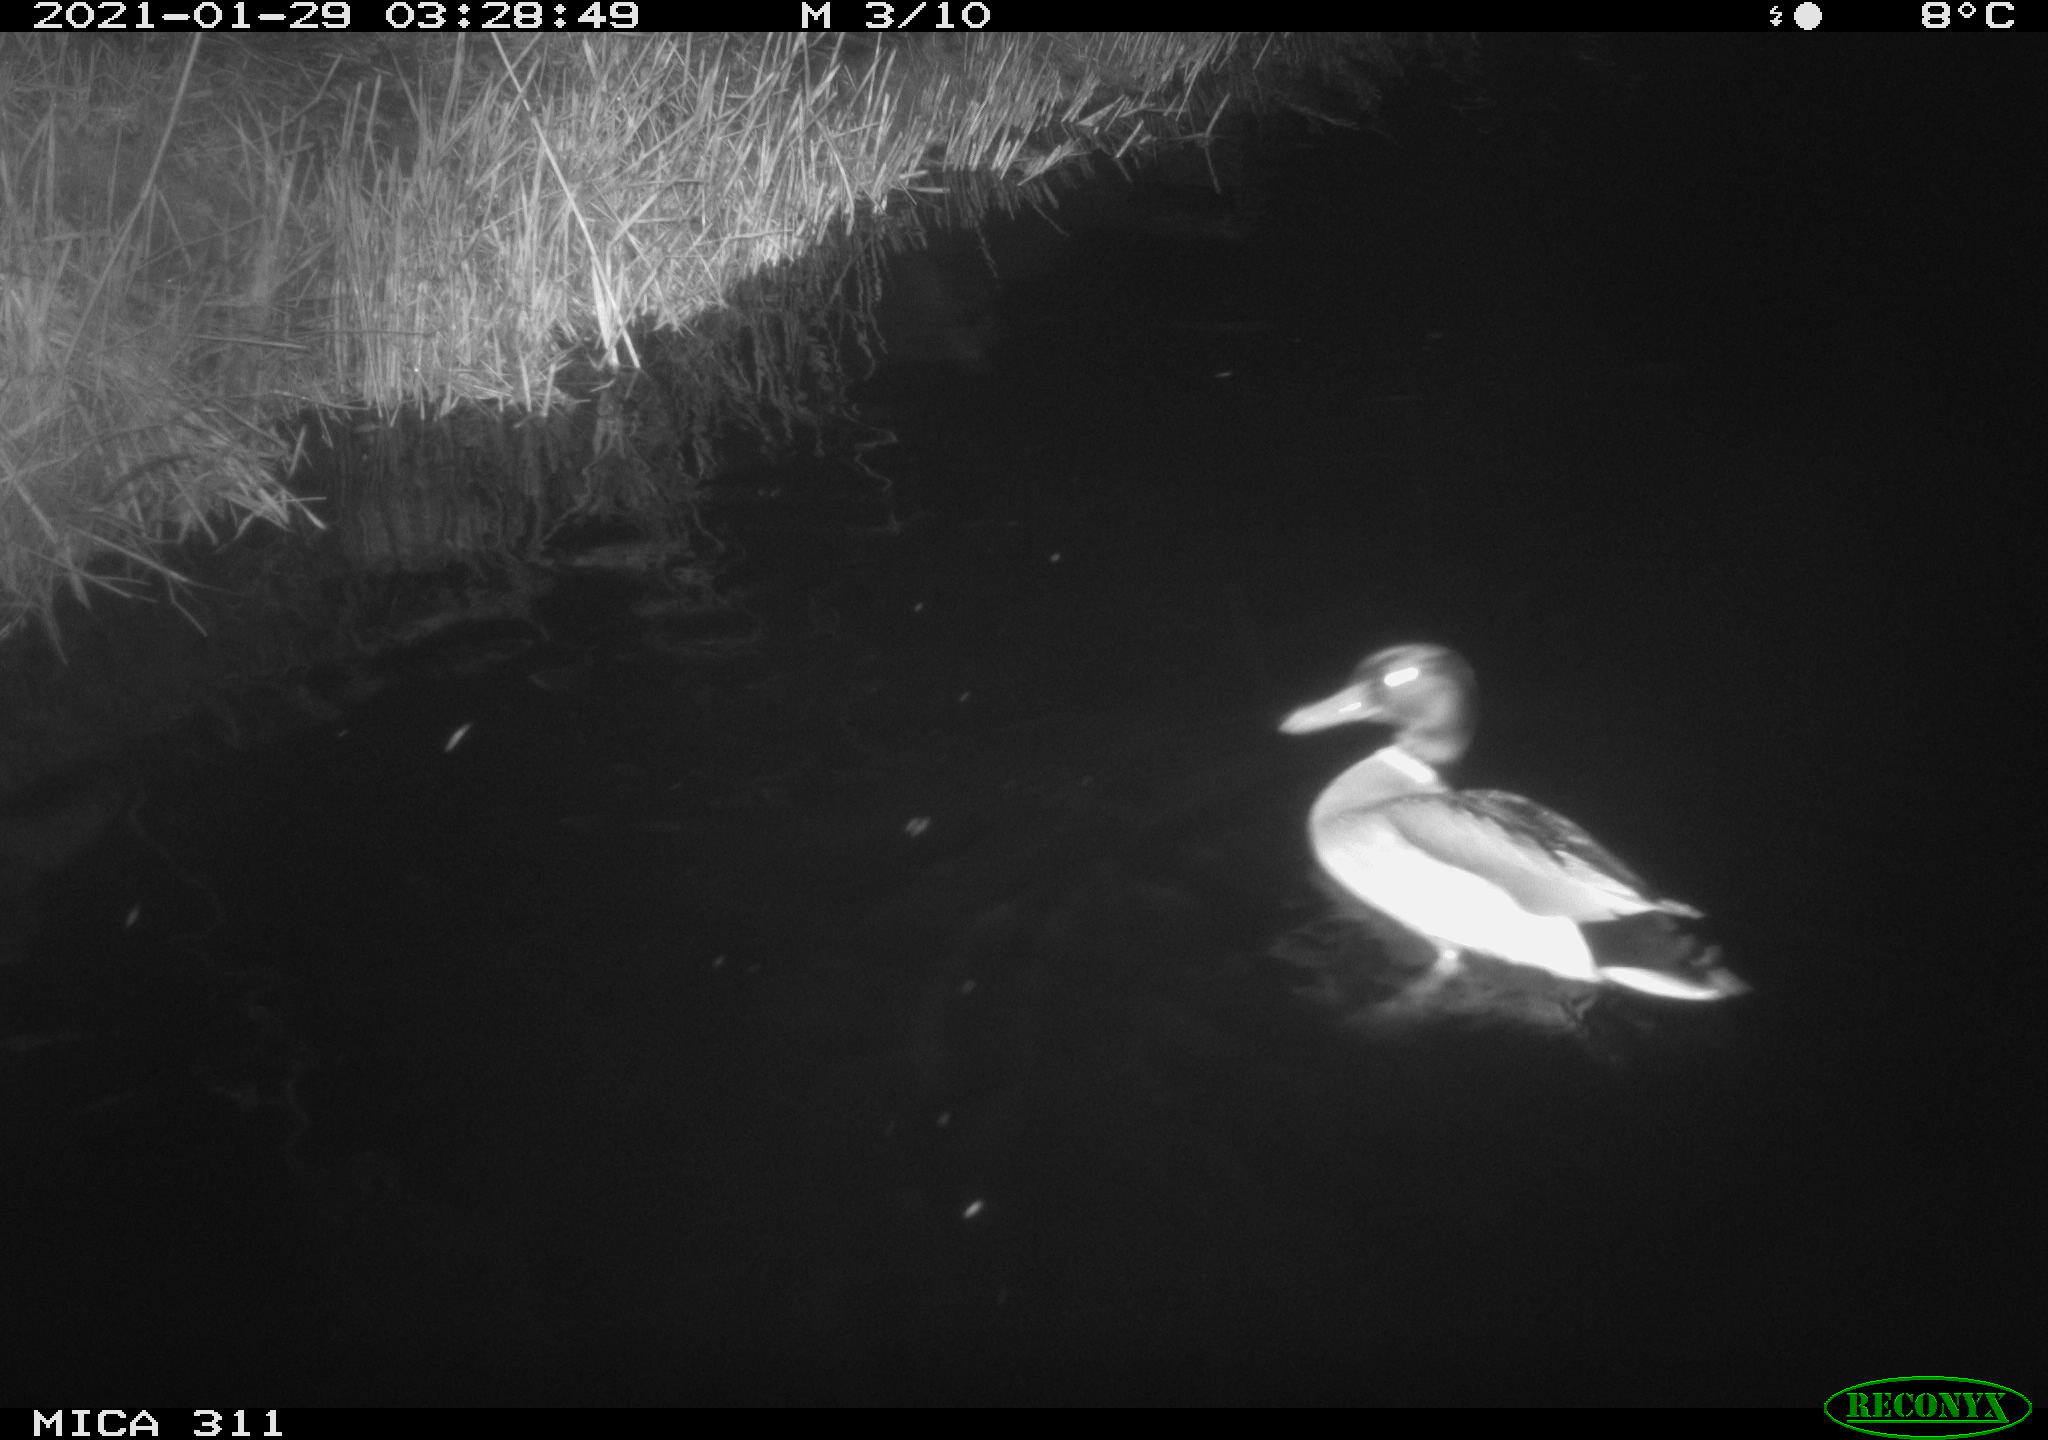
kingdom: Animalia
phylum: Chordata
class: Aves
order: Anseriformes
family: Anatidae
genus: Anas
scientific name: Anas
